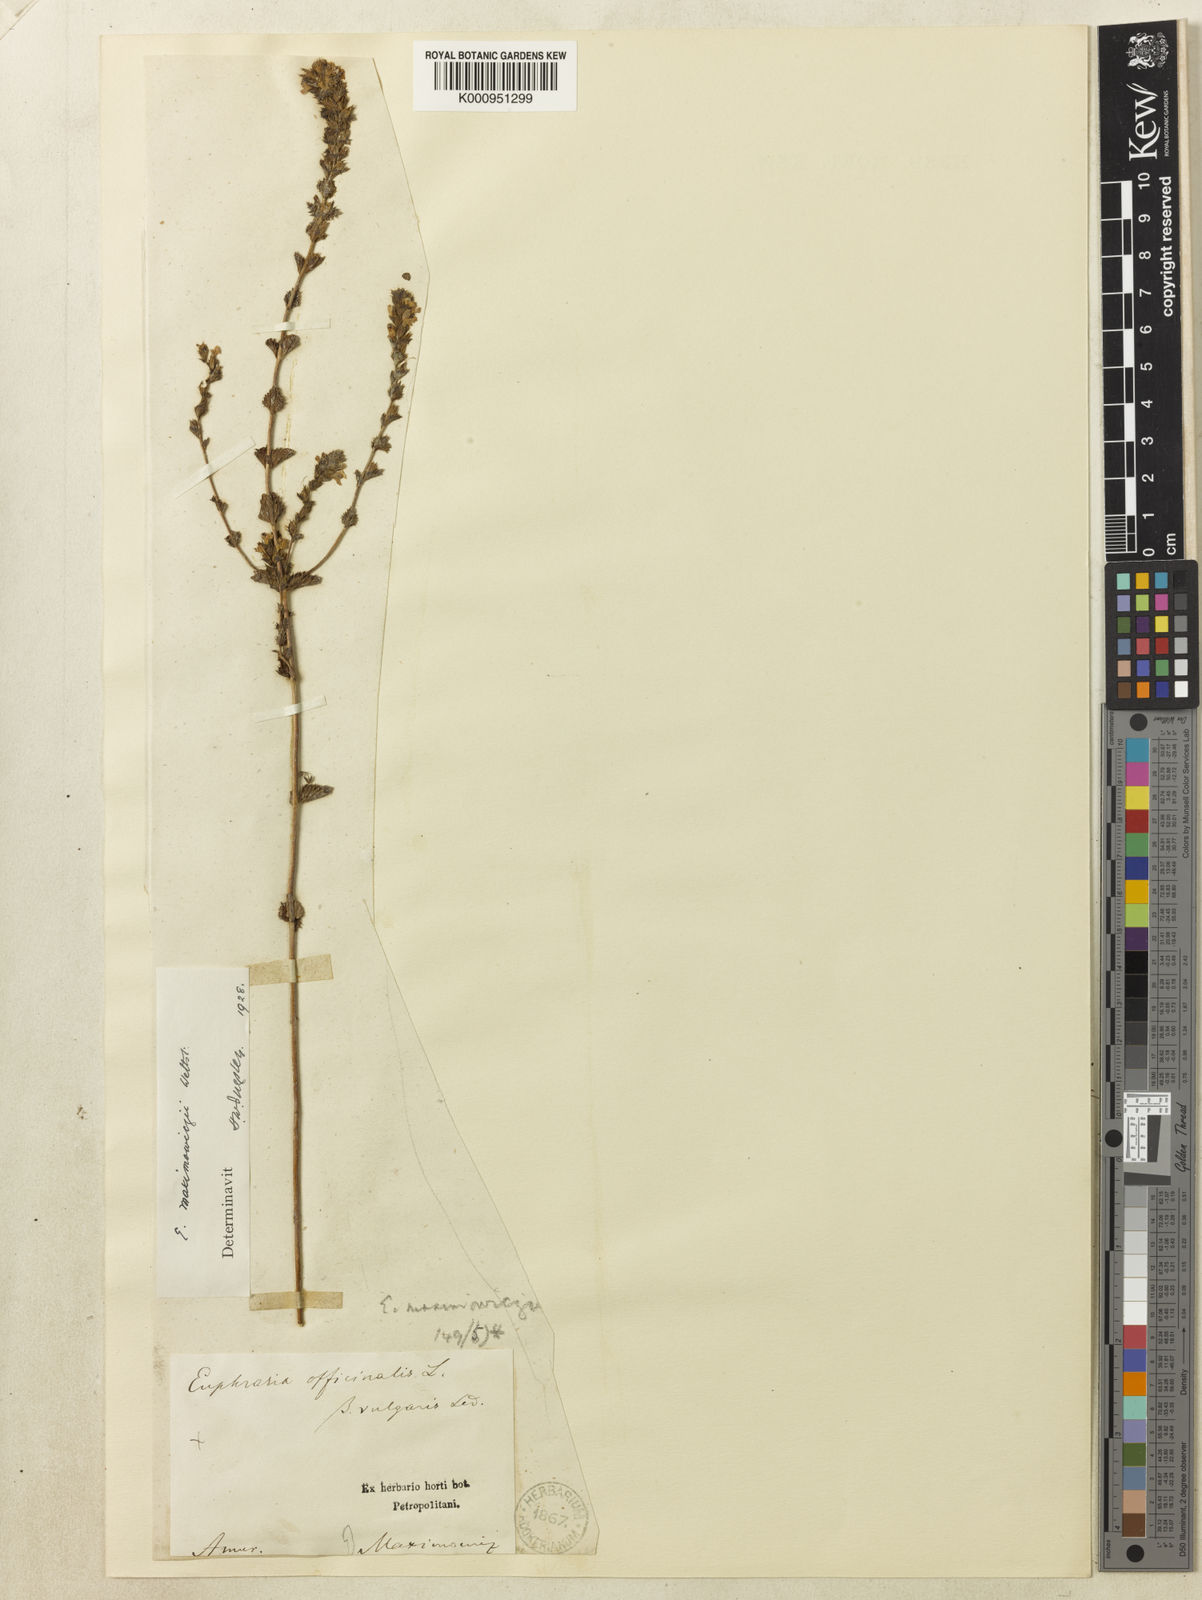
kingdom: Plantae
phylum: Tracheophyta
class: Magnoliopsida
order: Lamiales
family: Orobanchaceae
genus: Euphrasia
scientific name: Euphrasia maximowiczii
